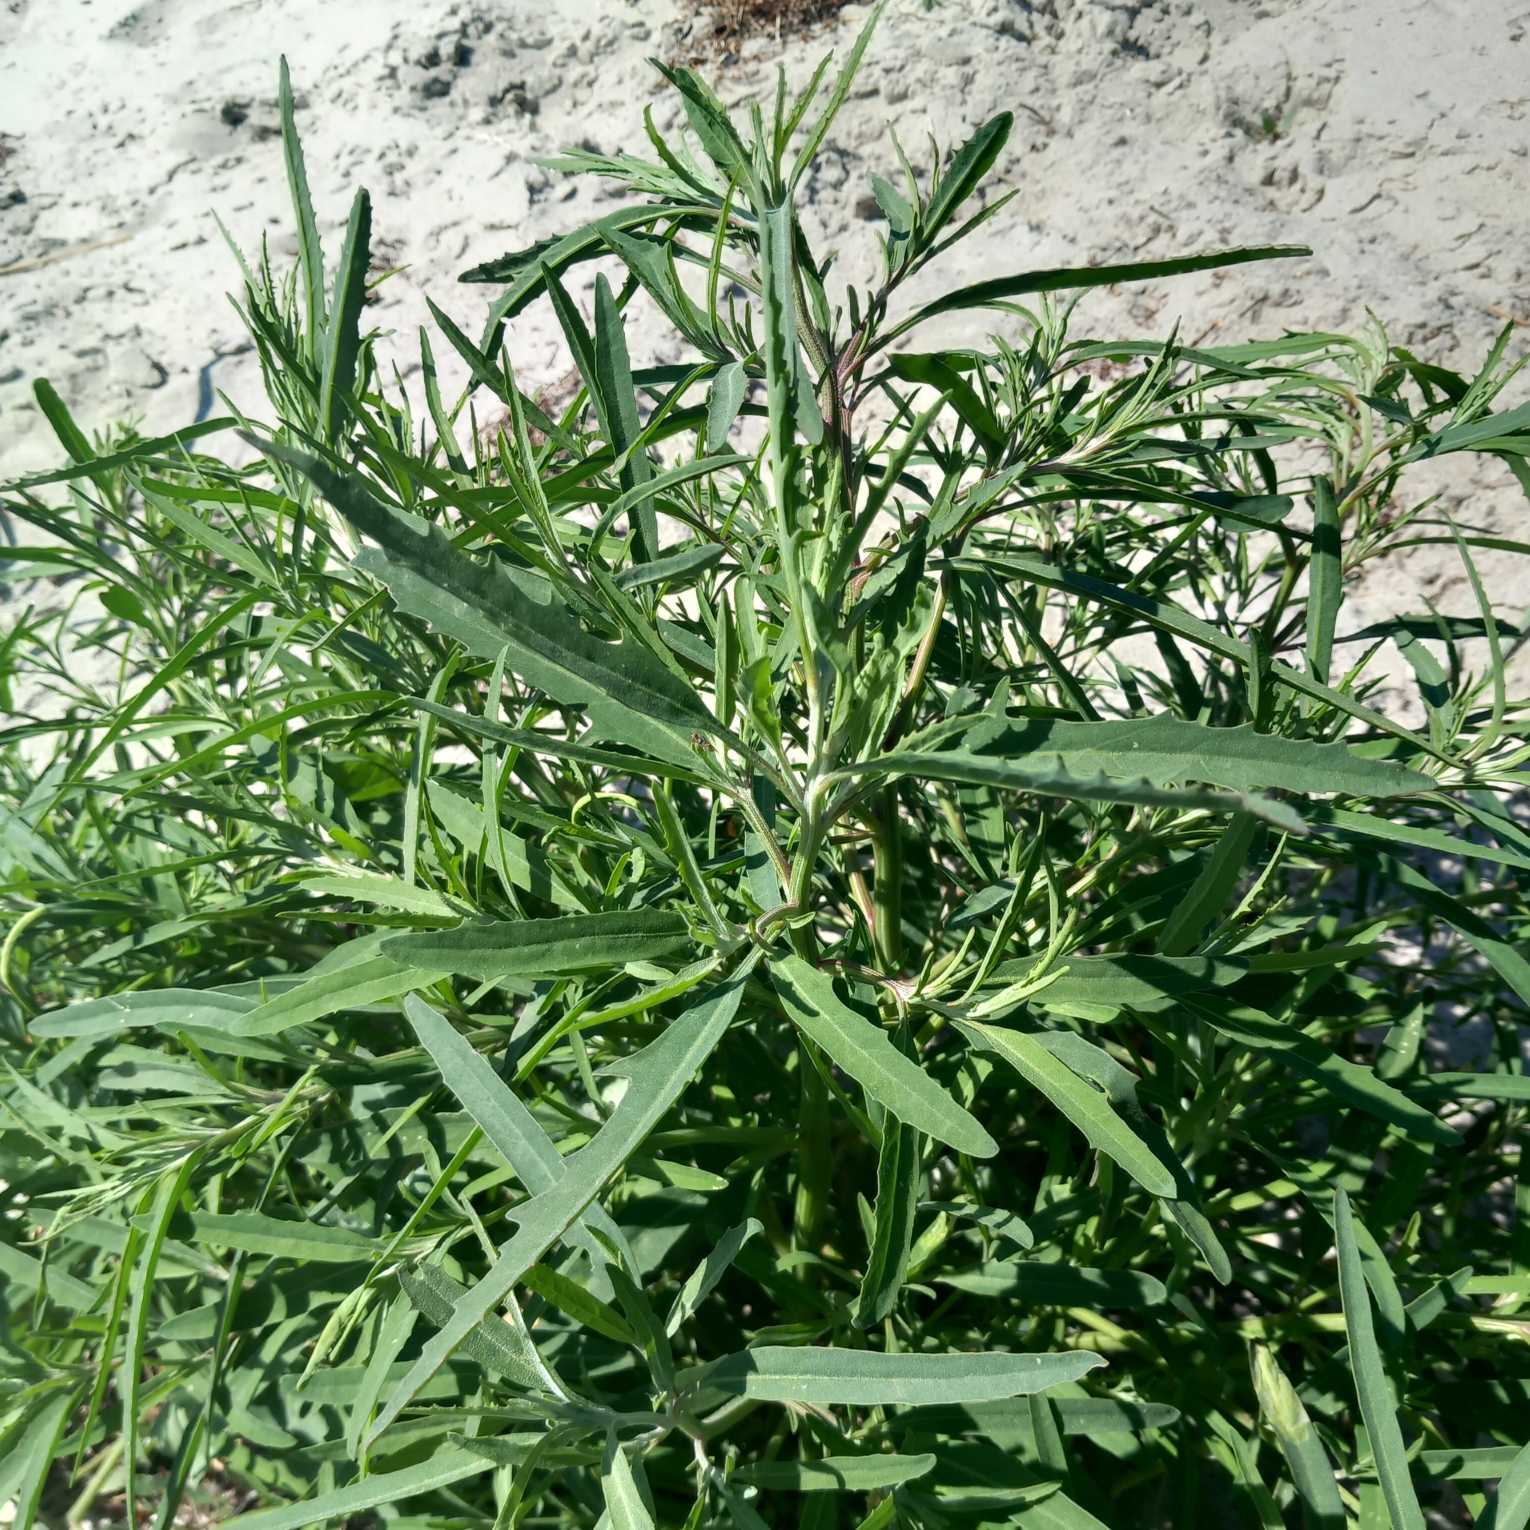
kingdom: Plantae
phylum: Tracheophyta
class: Magnoliopsida
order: Caryophyllales
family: Amaranthaceae
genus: Atriplex
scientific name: Atriplex littoralis
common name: Strand-mælde
